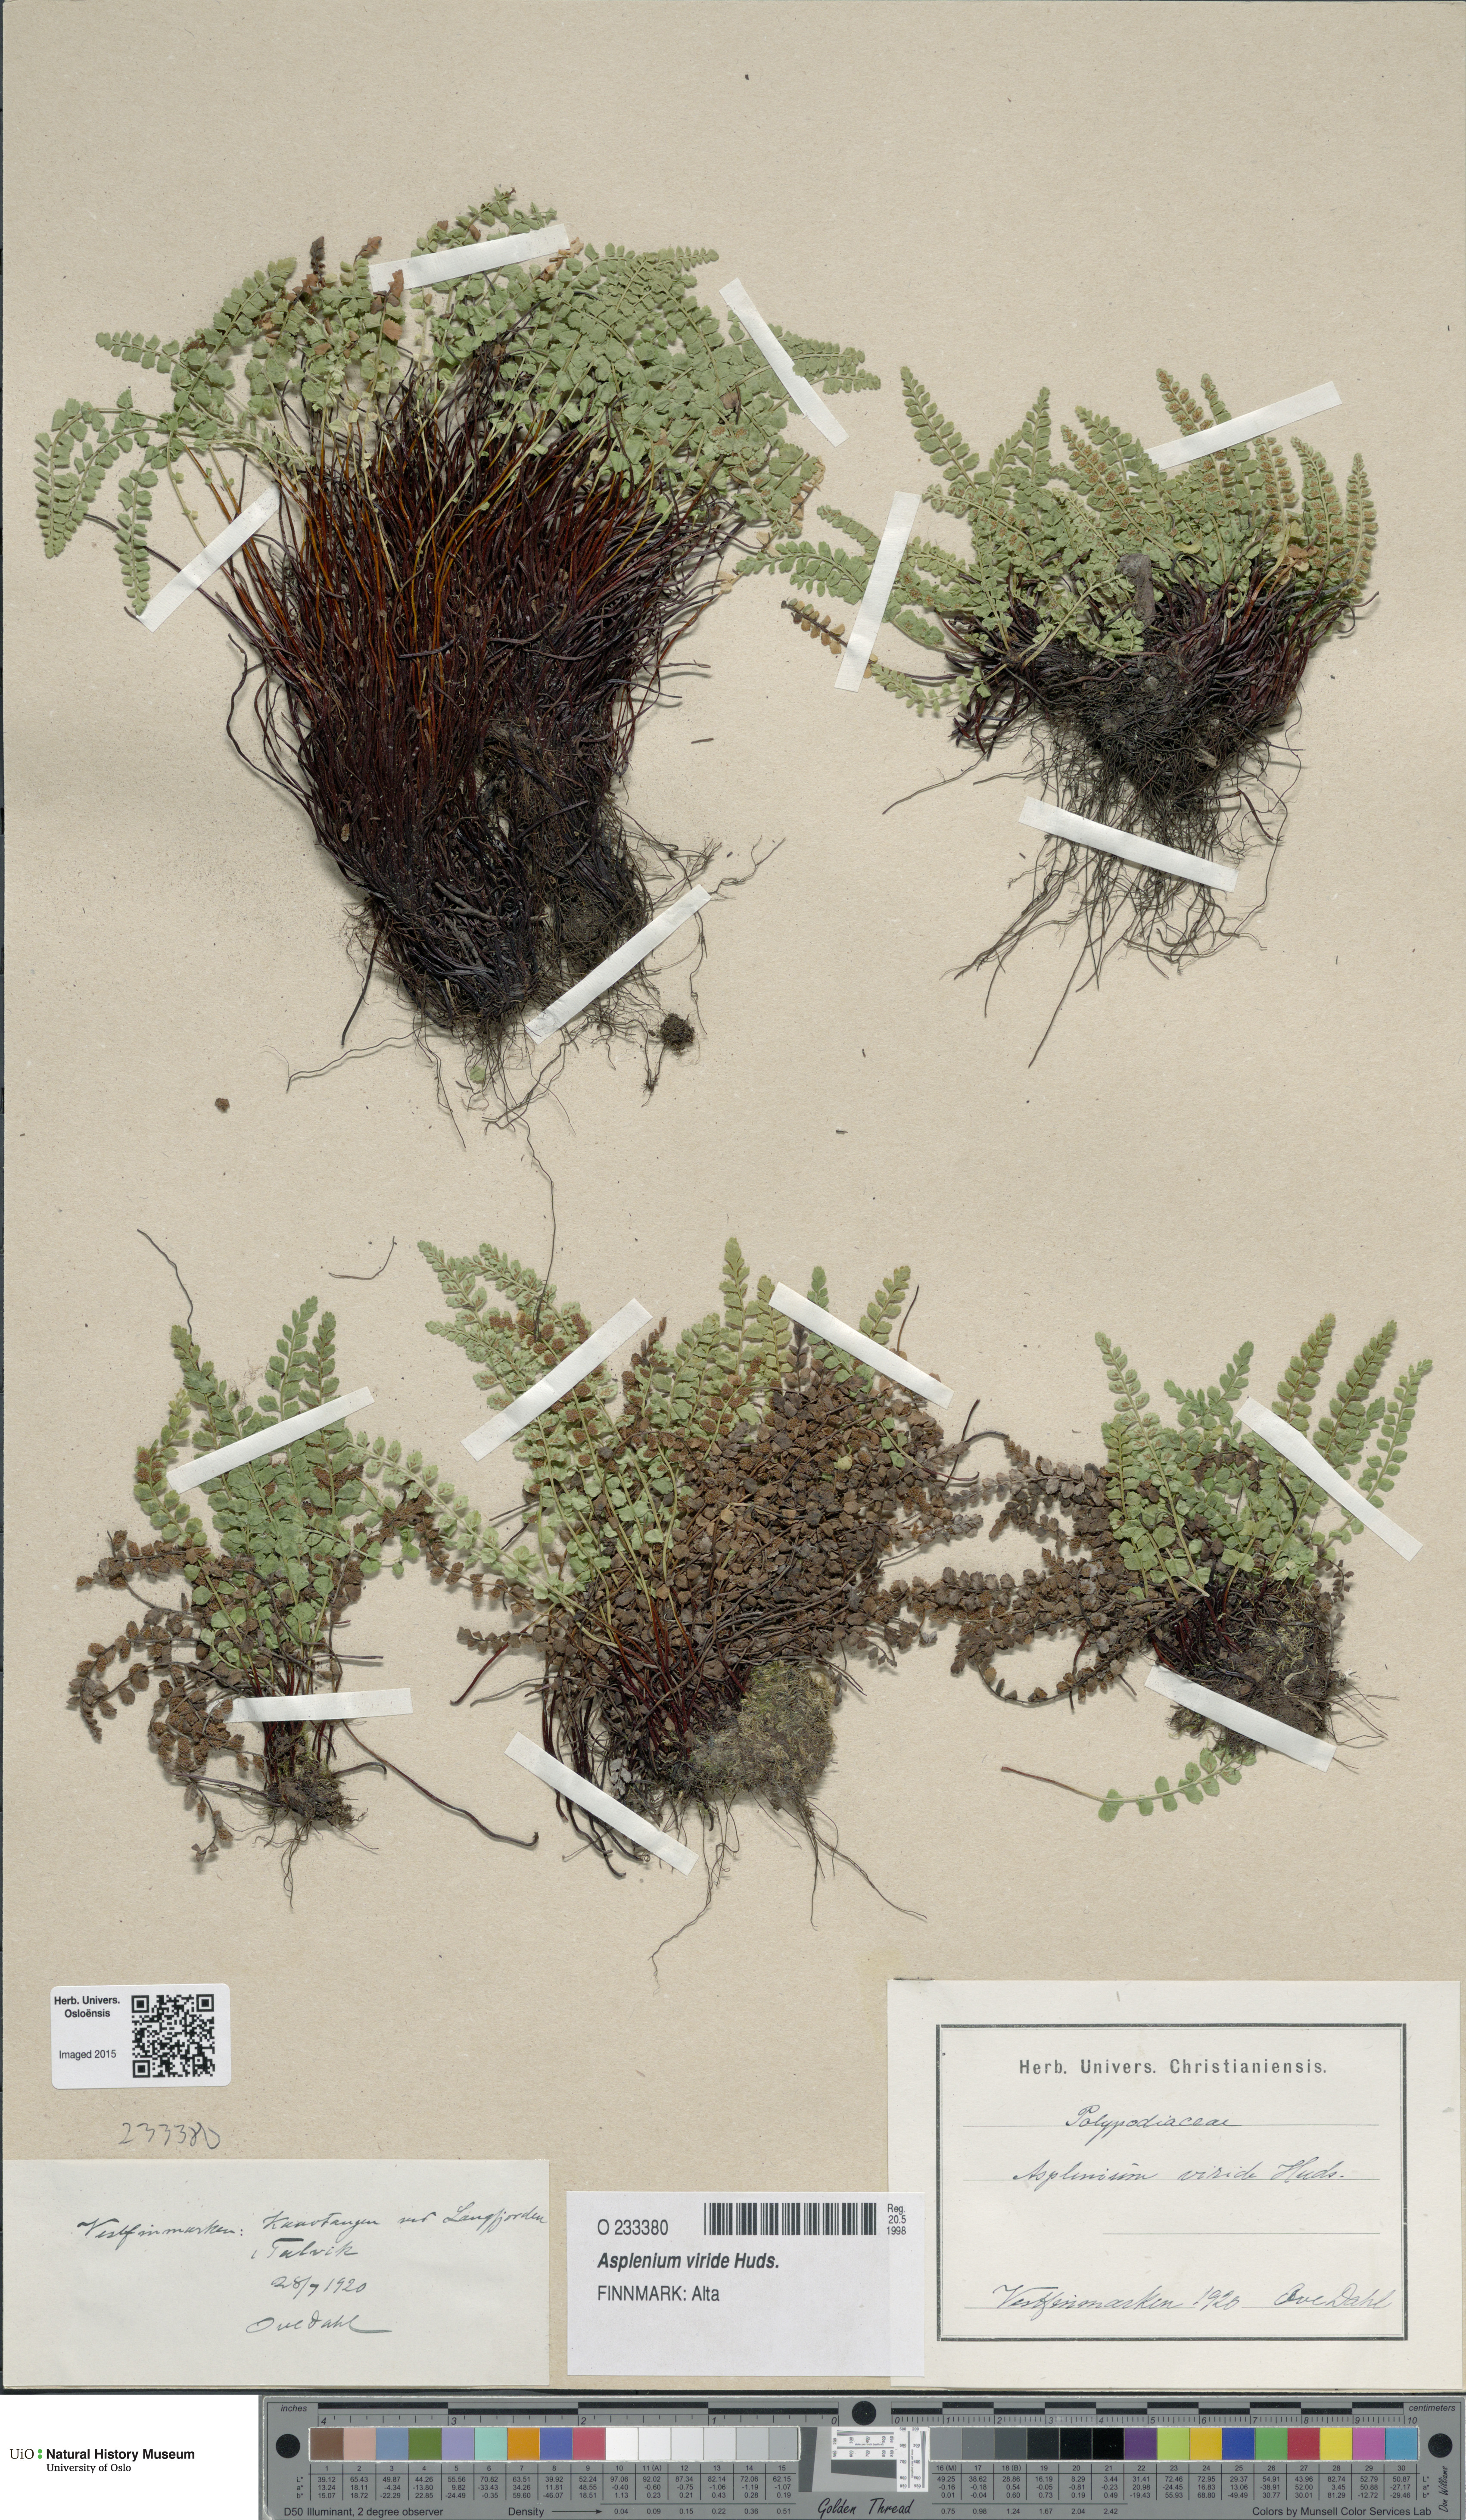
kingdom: Plantae
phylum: Tracheophyta
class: Polypodiopsida
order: Polypodiales
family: Aspleniaceae
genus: Asplenium
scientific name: Asplenium viride
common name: Green spleenwort
